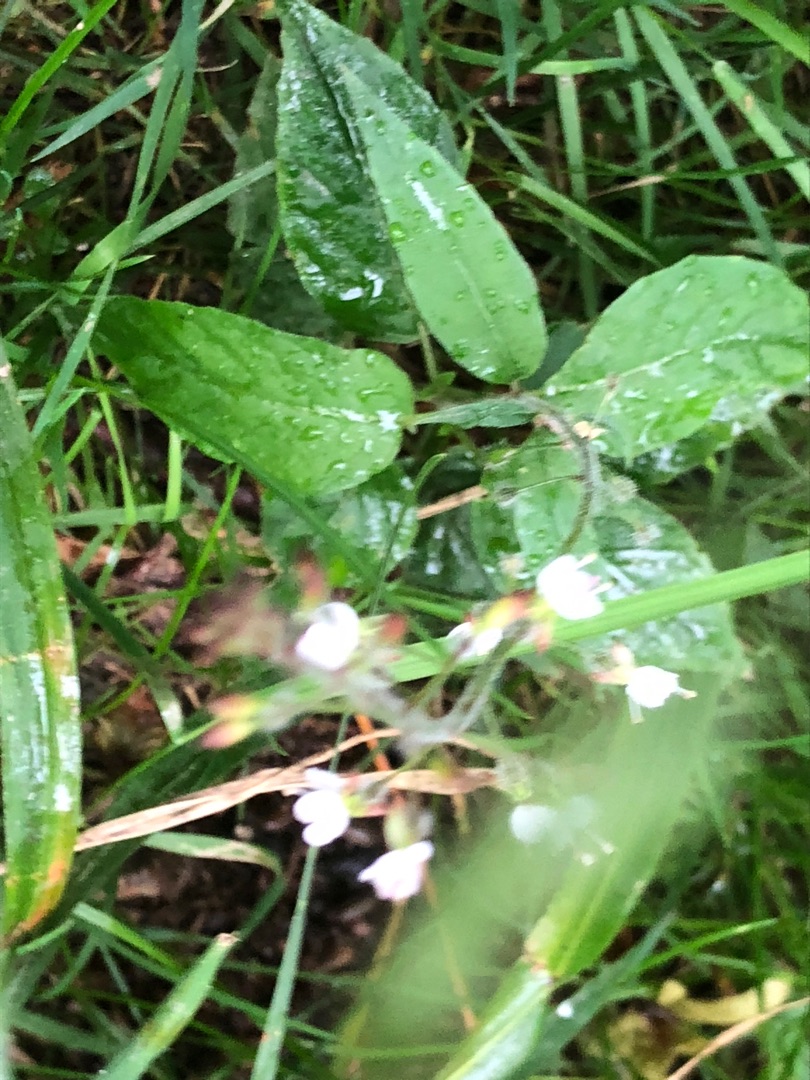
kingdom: Plantae
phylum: Tracheophyta
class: Magnoliopsida
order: Myrtales
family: Onagraceae
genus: Circaea
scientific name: Circaea lutetiana
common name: Dunet steffensurt
